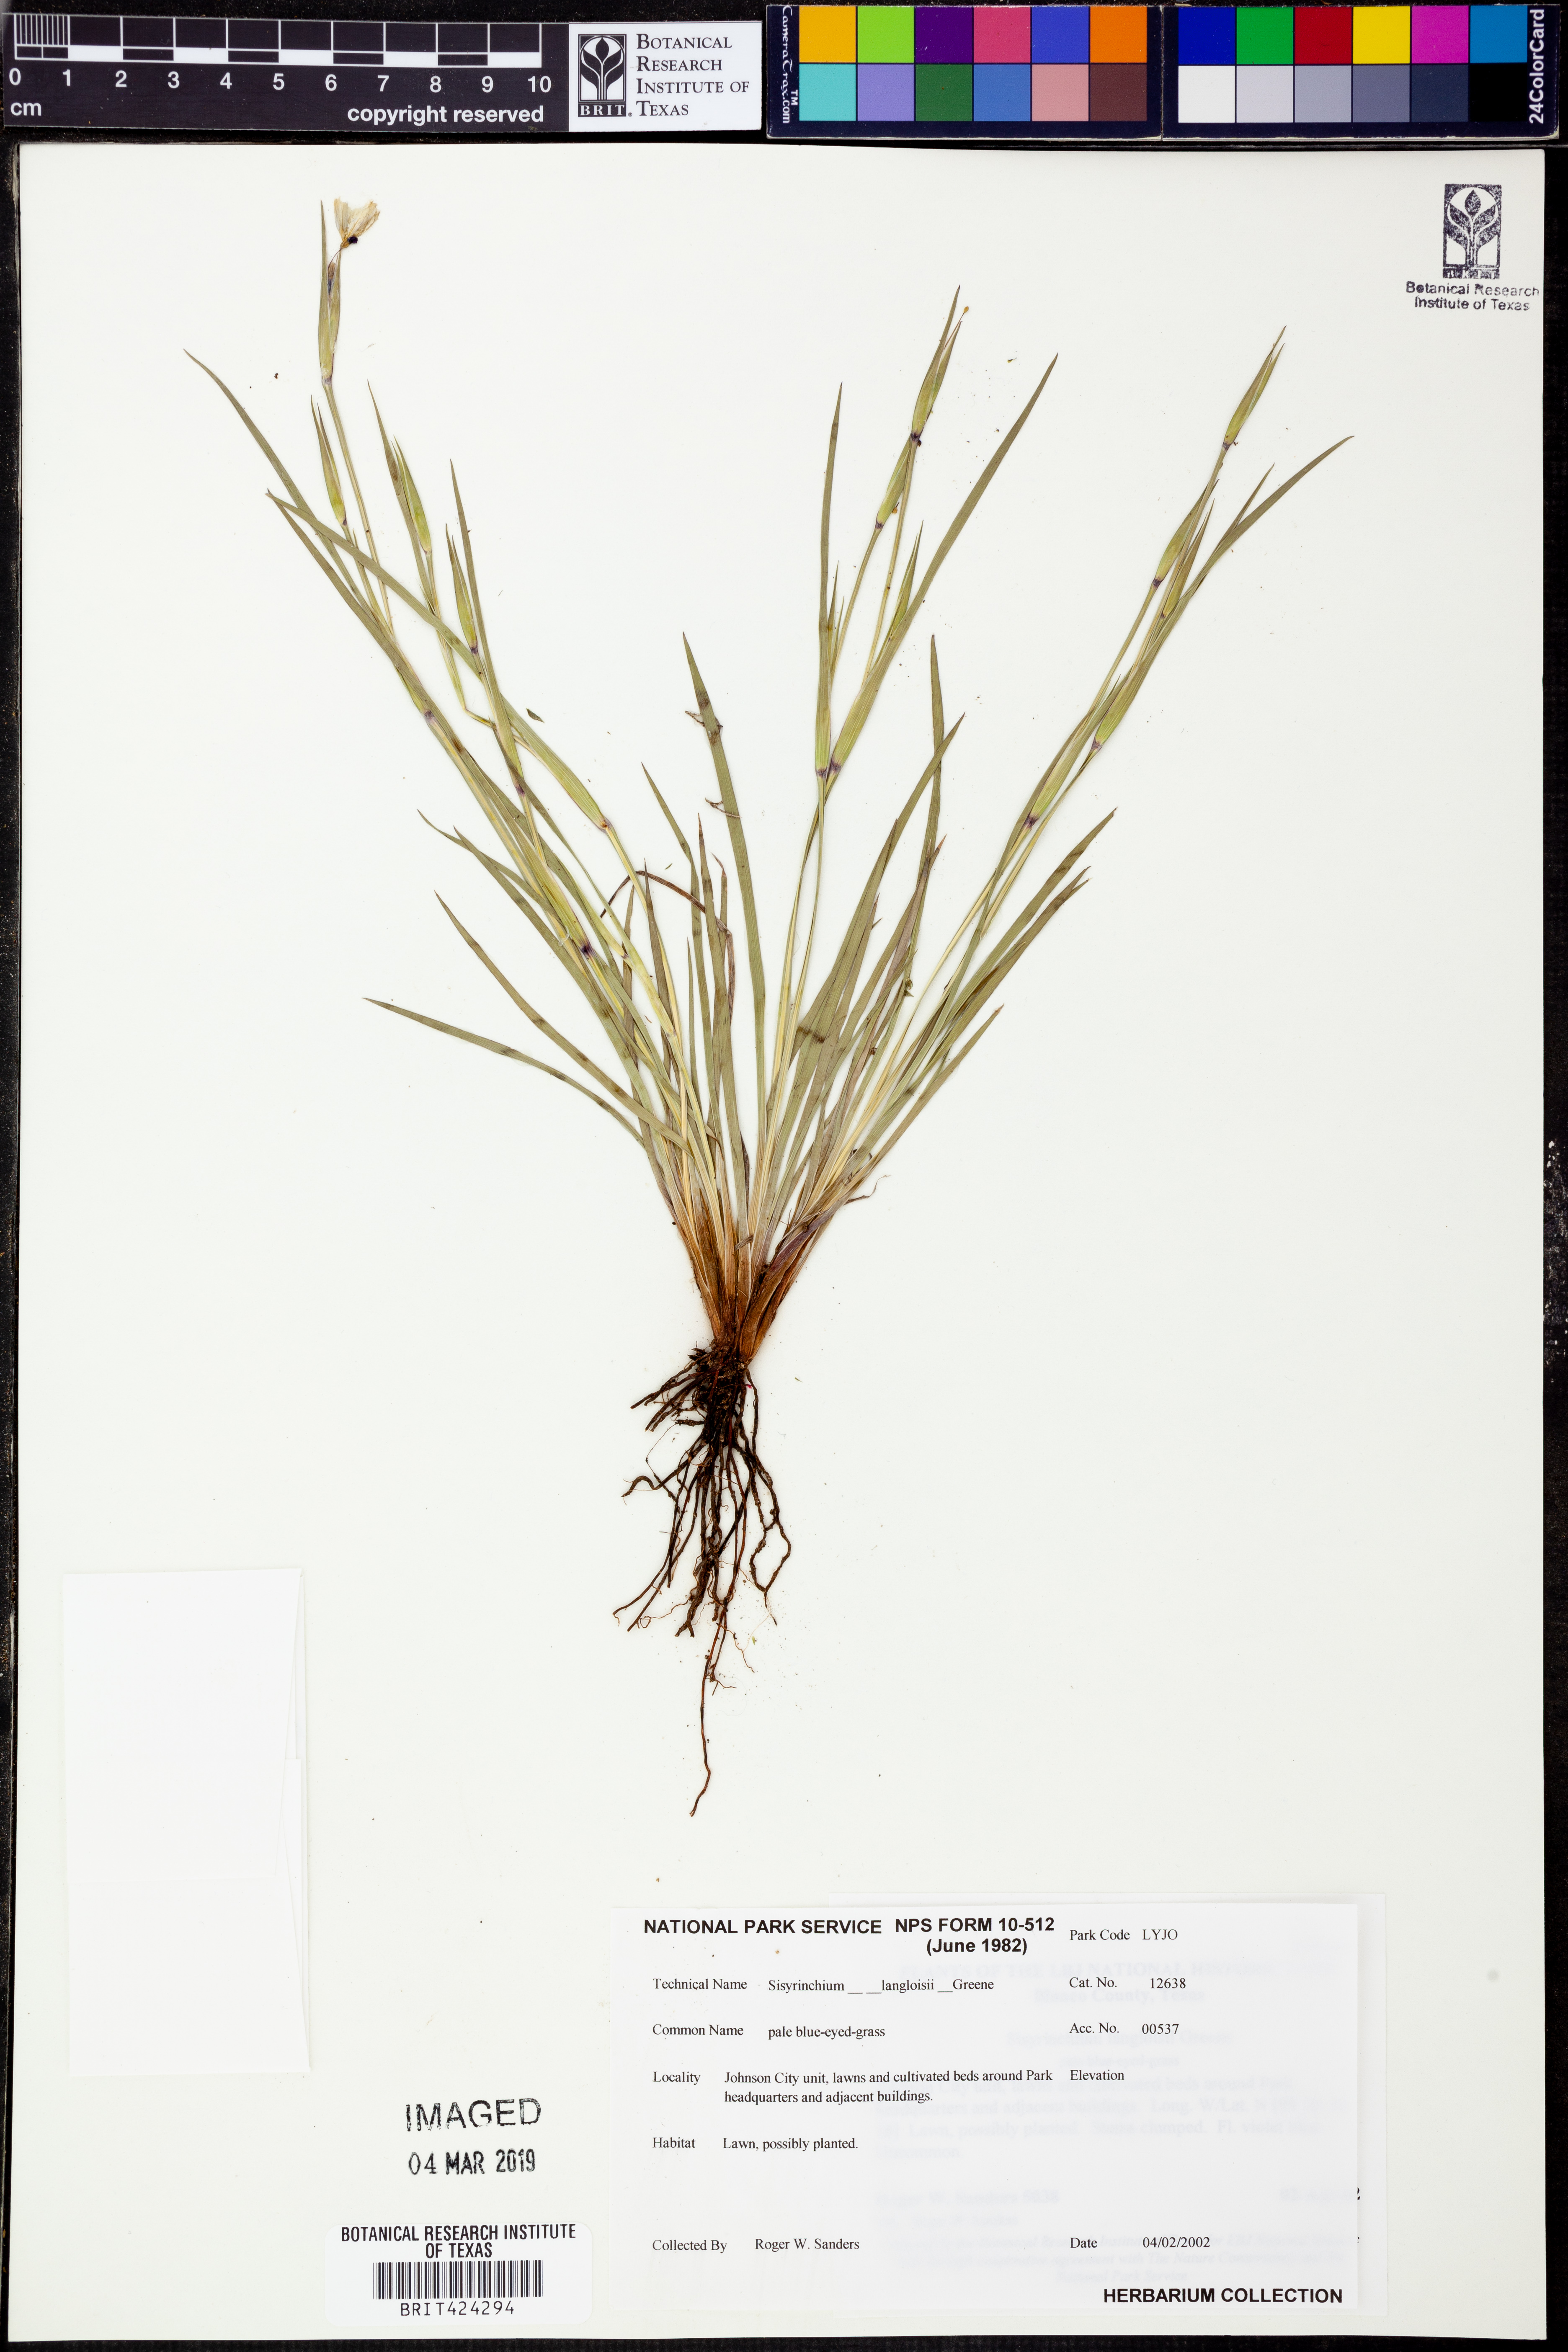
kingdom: Plantae
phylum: Tracheophyta
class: Liliopsida
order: Asparagales
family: Iridaceae
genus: Sisyrinchium
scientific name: Sisyrinchium langloisii
